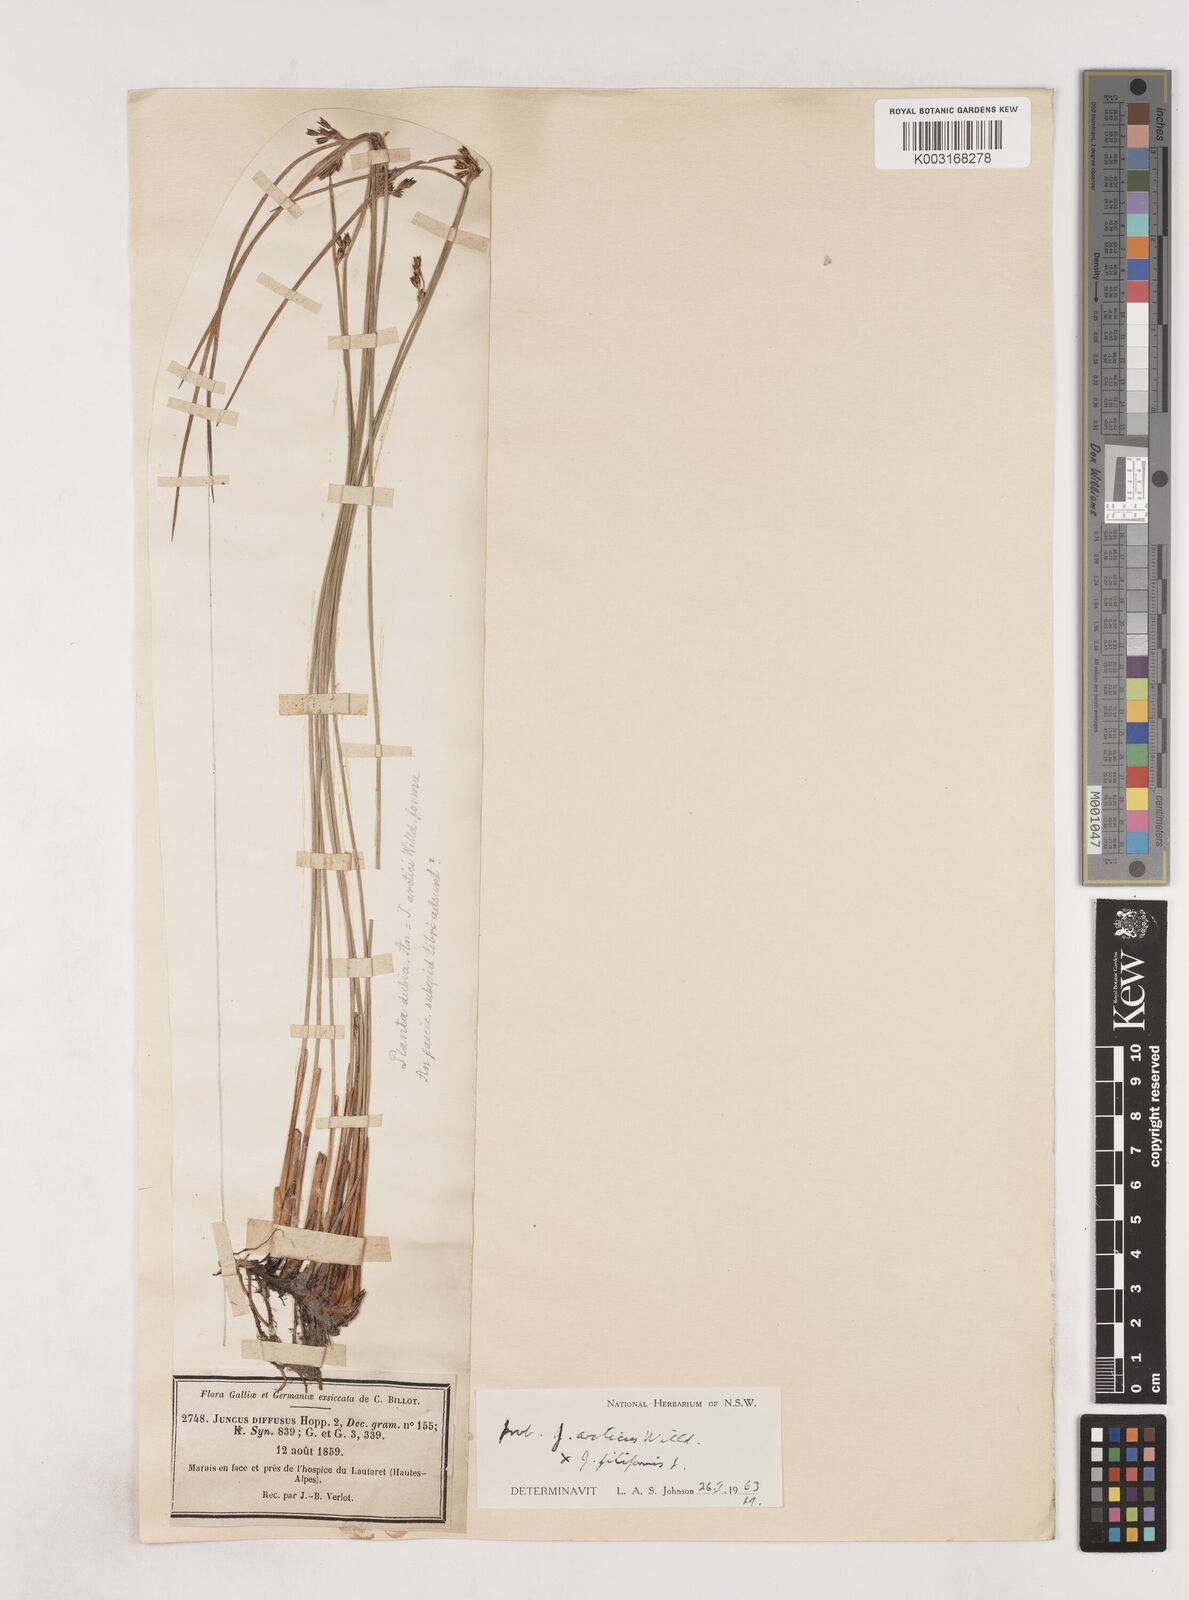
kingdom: Plantae
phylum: Tracheophyta
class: Liliopsida
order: Poales
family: Juncaceae
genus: Juncus
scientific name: Juncus arcticus
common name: Arctic rush
